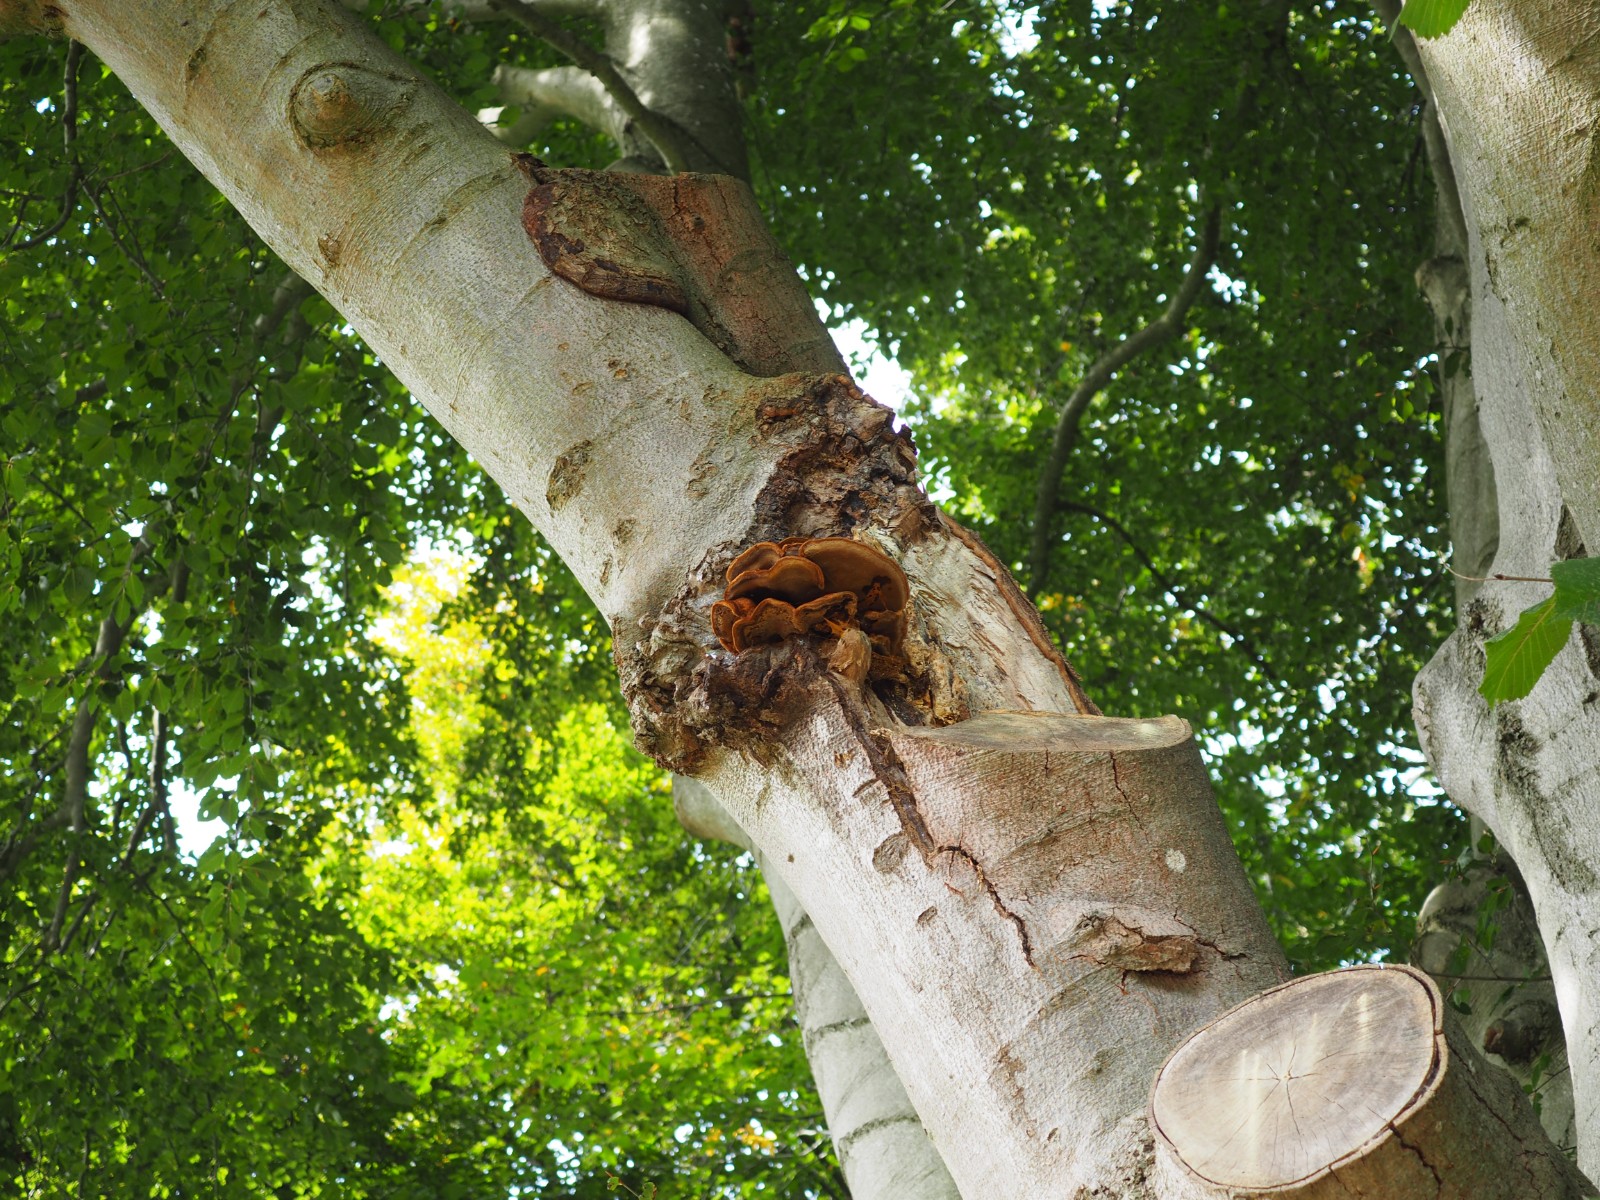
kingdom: Fungi
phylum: Basidiomycota
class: Agaricomycetes
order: Hymenochaetales
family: Hymenochaetaceae
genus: Inonotus
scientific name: Inonotus cuticularis
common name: kroghåret spejlporesvamp
